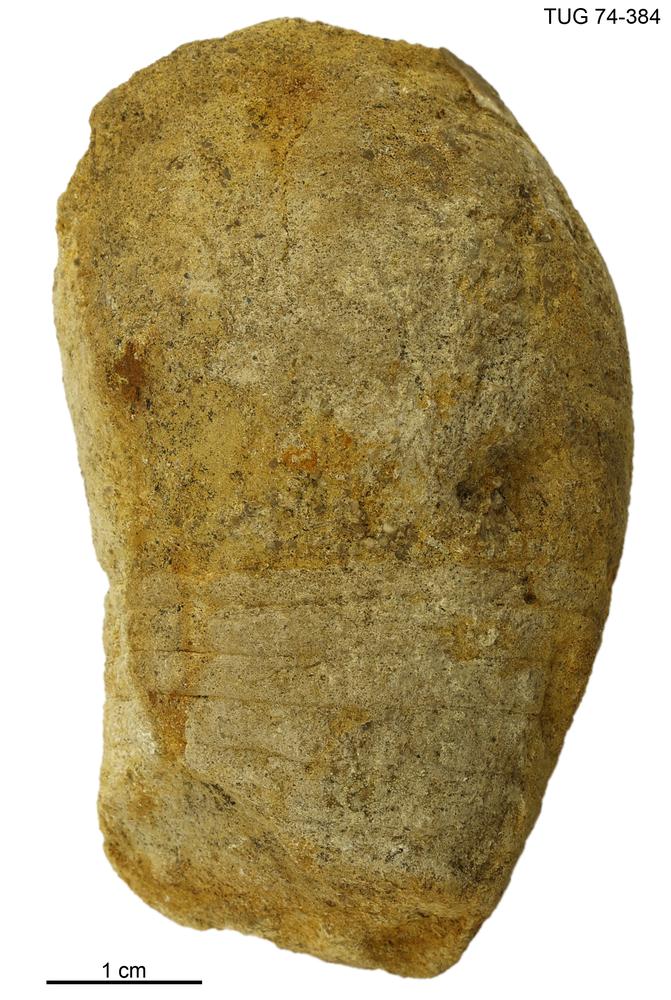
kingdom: Animalia
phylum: Mollusca
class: Cephalopoda
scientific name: Cephalopoda
